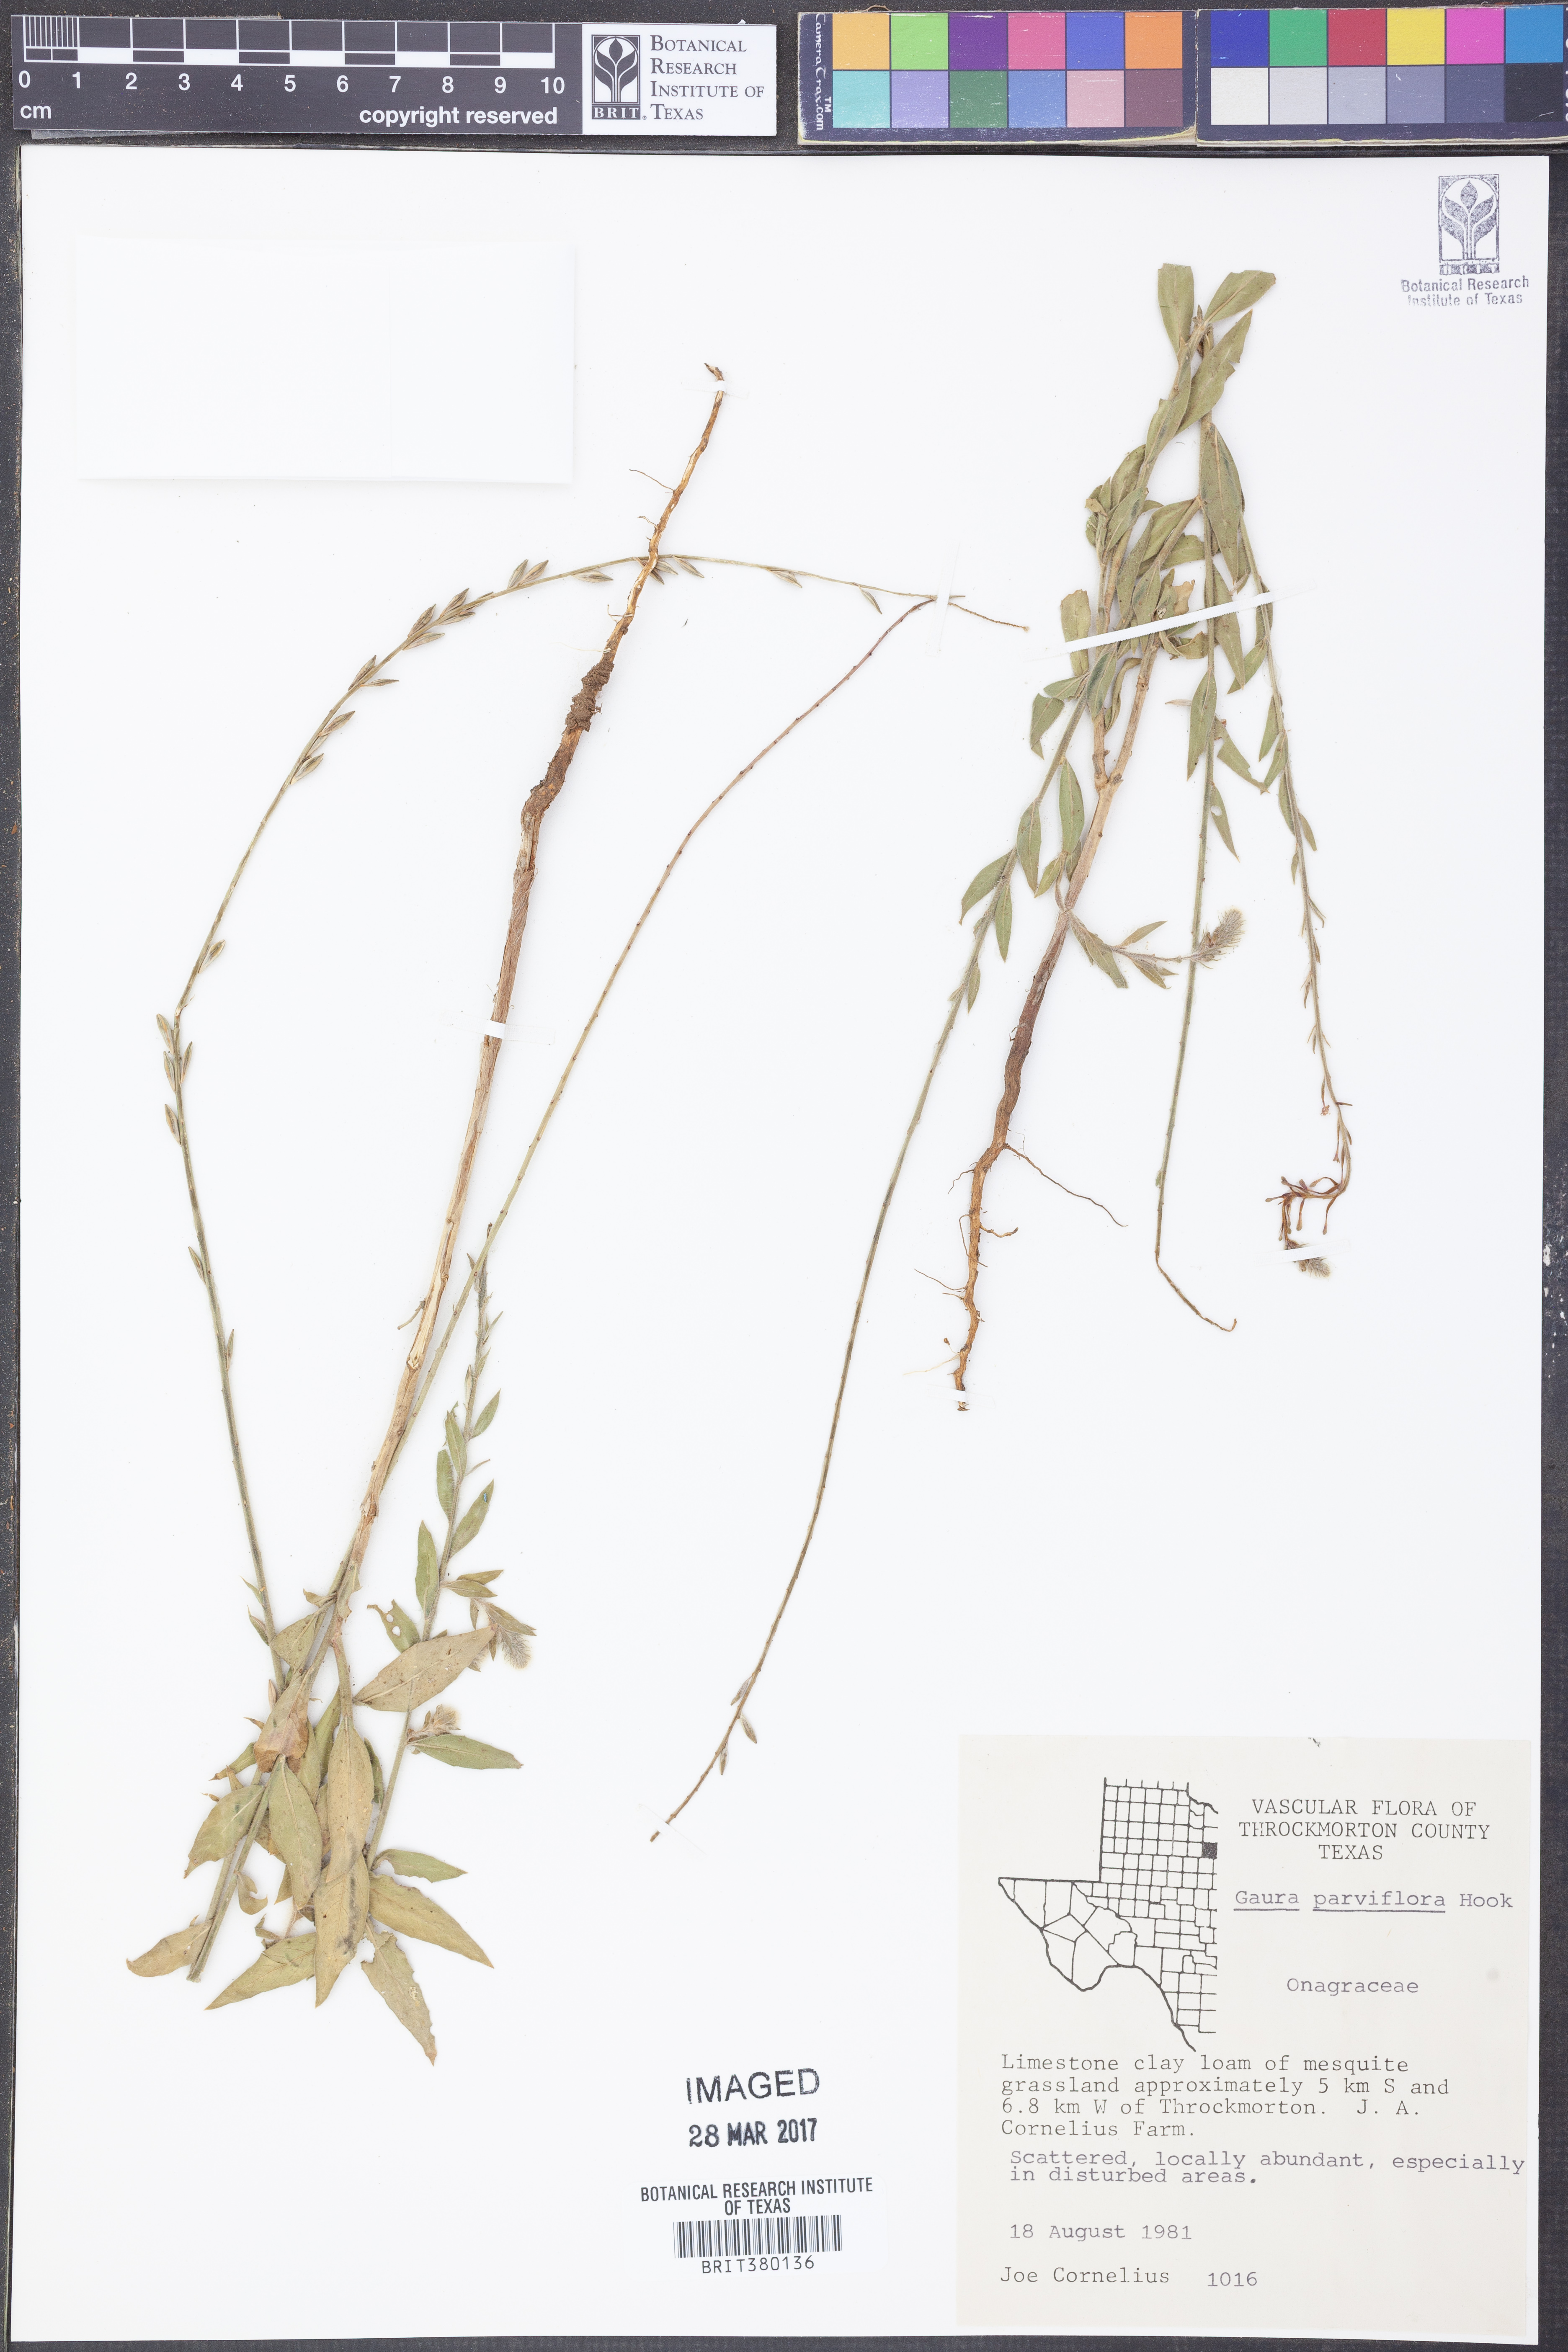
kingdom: Plantae
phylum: Tracheophyta
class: Magnoliopsida
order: Myrtales
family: Onagraceae
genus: Oenothera
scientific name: Oenothera curtiflora
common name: Velvetweed
